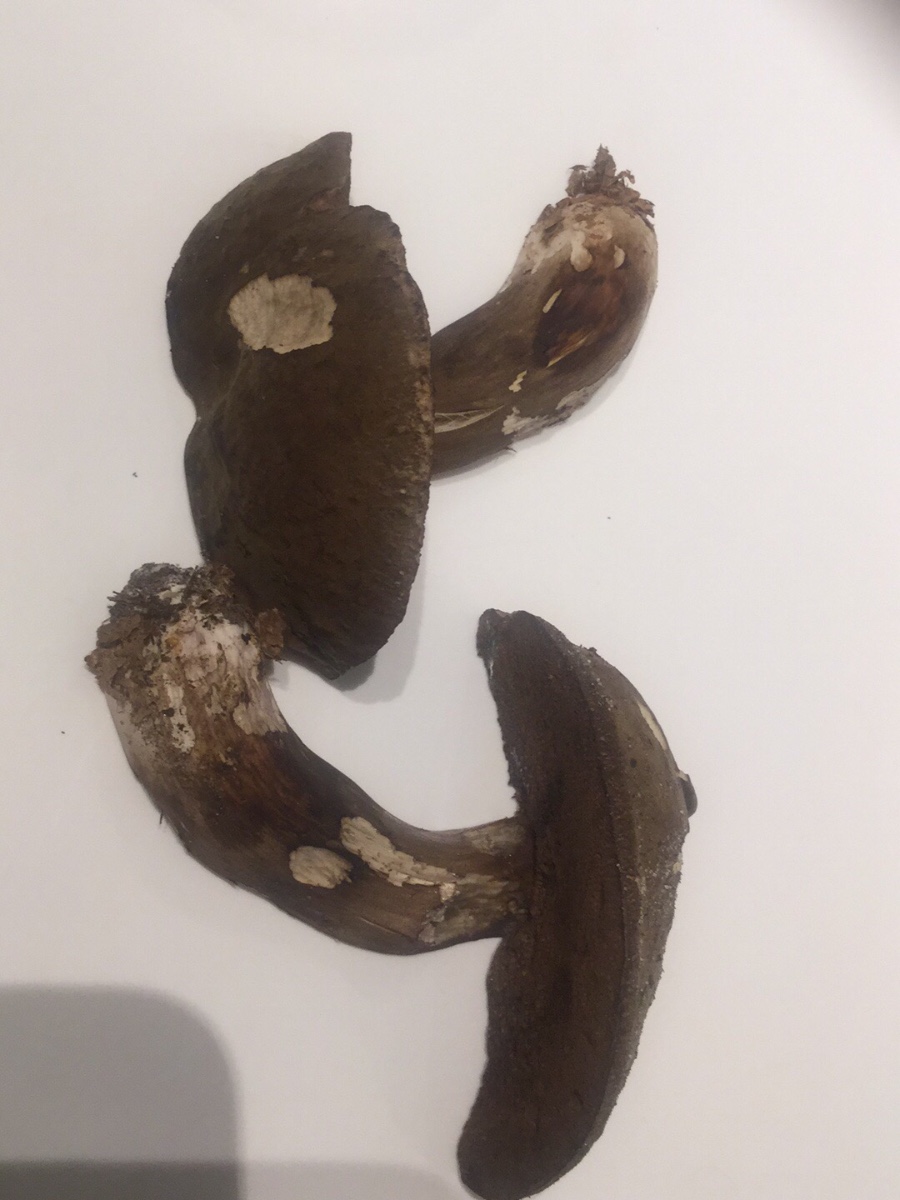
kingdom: Fungi
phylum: Basidiomycota
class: Agaricomycetes
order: Boletales
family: Boletaceae
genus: Porphyrellus
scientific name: Porphyrellus porphyrosporus
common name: sodrørhat
